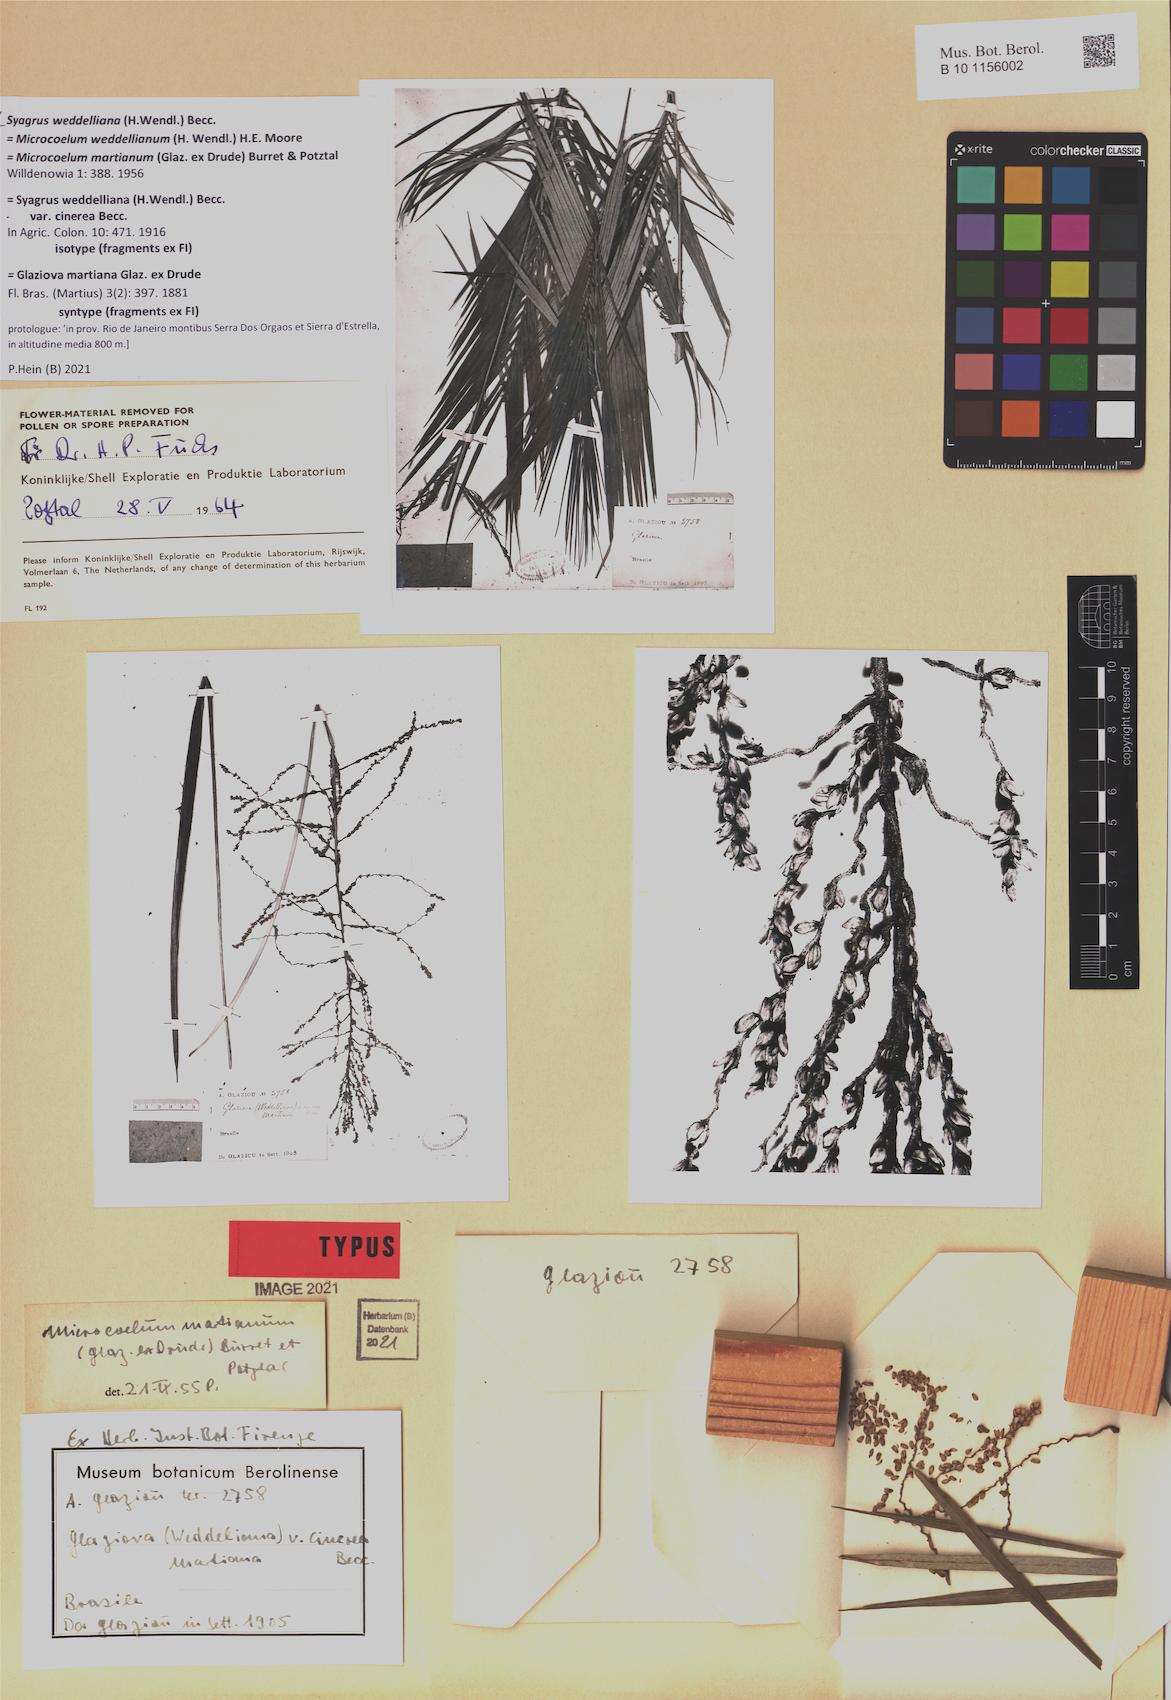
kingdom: Plantae
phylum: Tracheophyta
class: Liliopsida
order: Arecales
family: Arecaceae
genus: Syagrus
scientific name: Syagrus weddelliana
